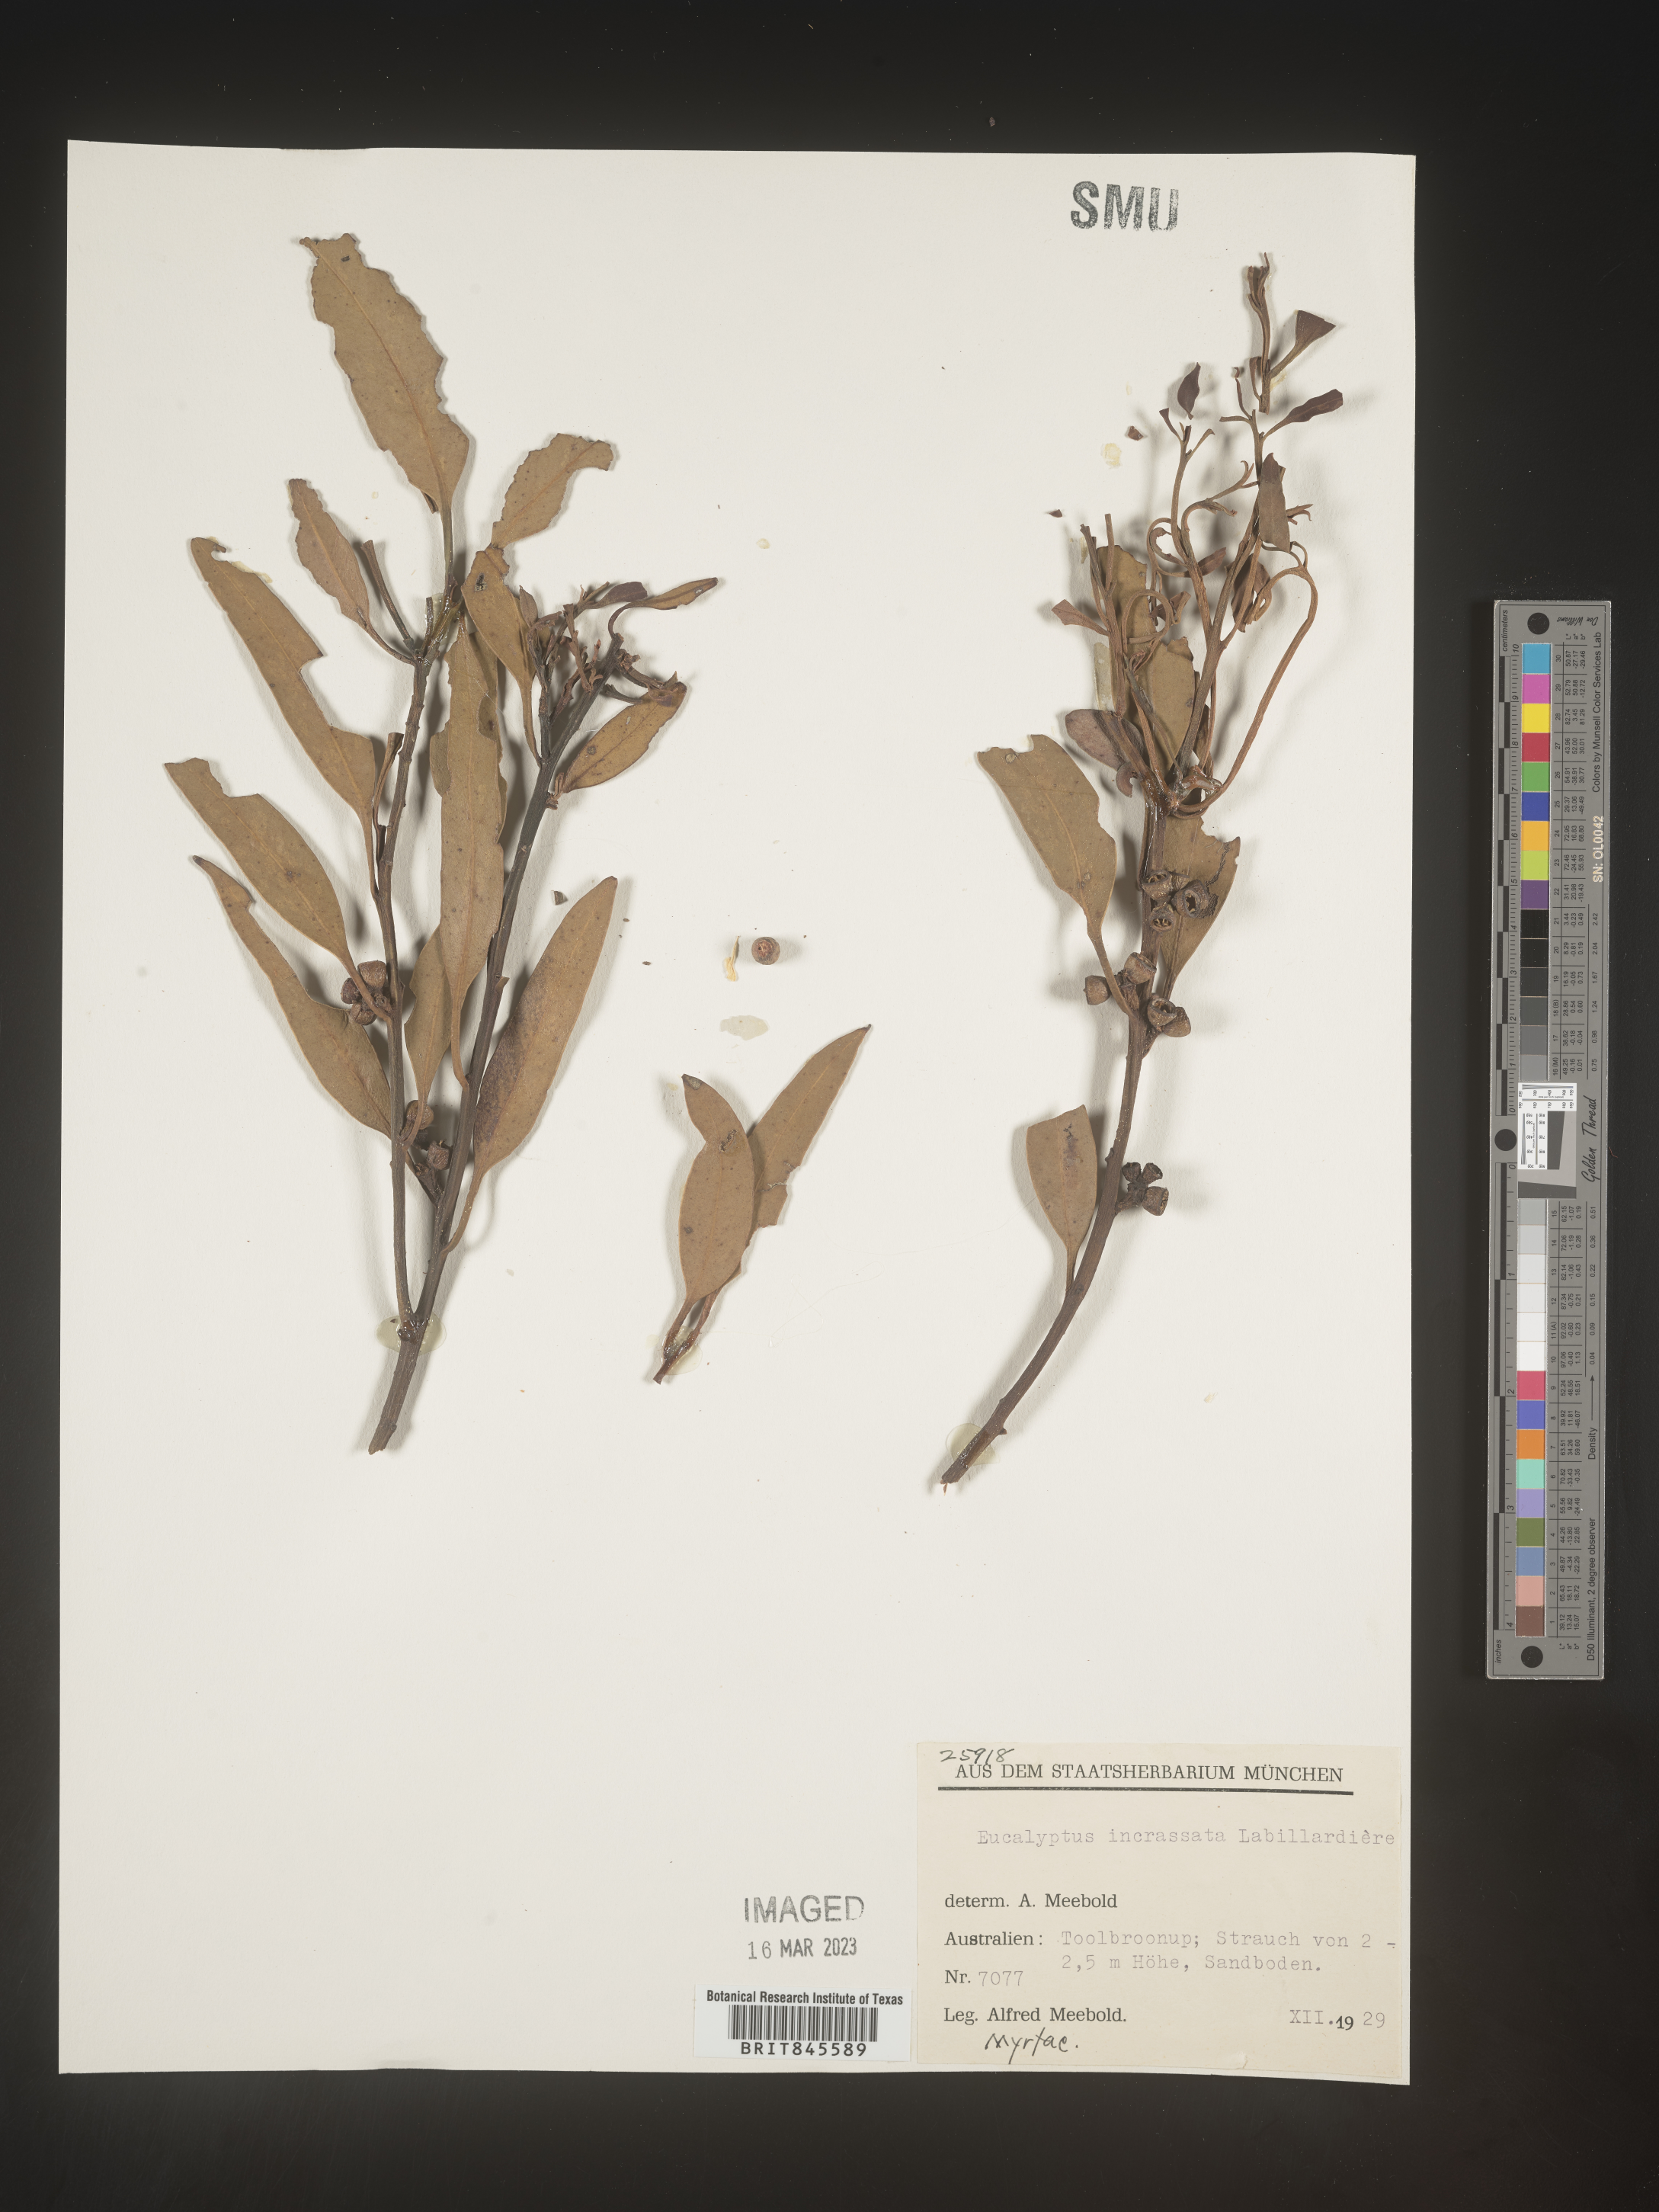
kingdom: Plantae
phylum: Tracheophyta
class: Magnoliopsida
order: Myrtales
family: Myrtaceae
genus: Eucalyptus
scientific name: Eucalyptus
